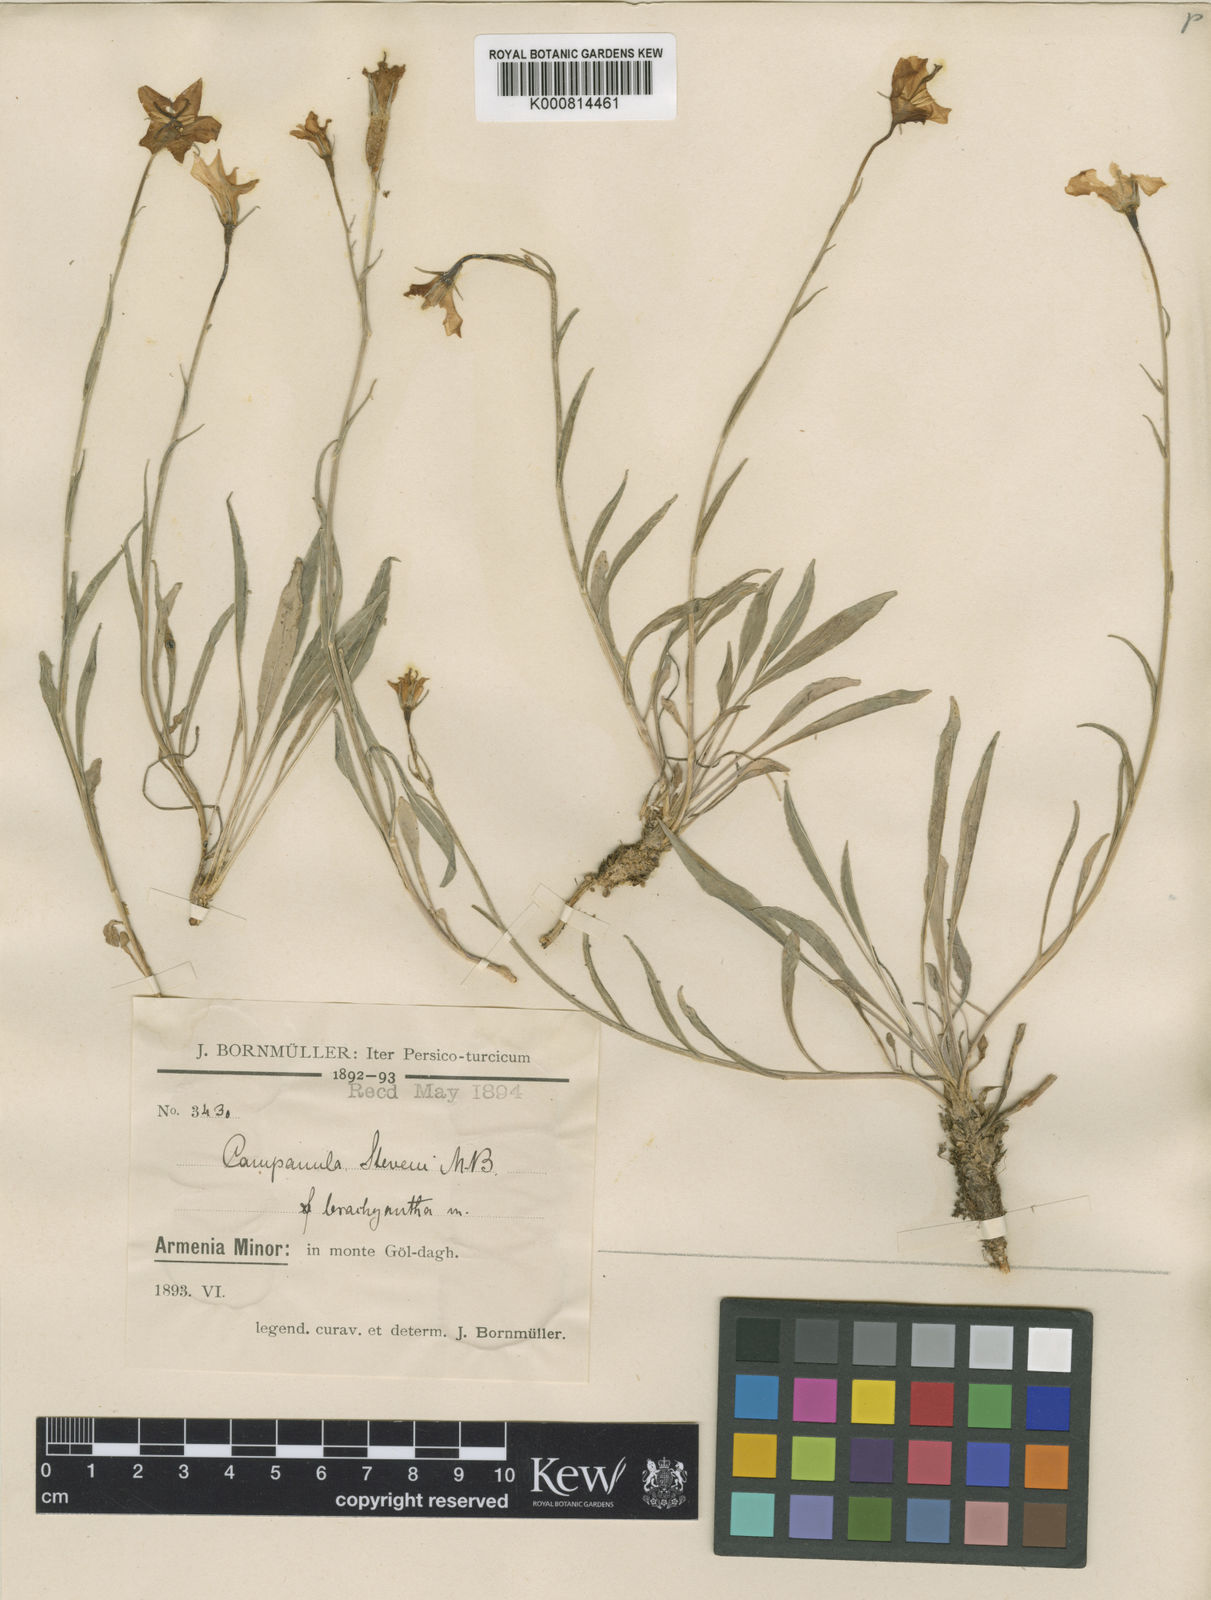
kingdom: Plantae
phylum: Tracheophyta
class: Magnoliopsida
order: Asterales
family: Campanulaceae
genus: Campanula
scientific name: Campanula stevenii
